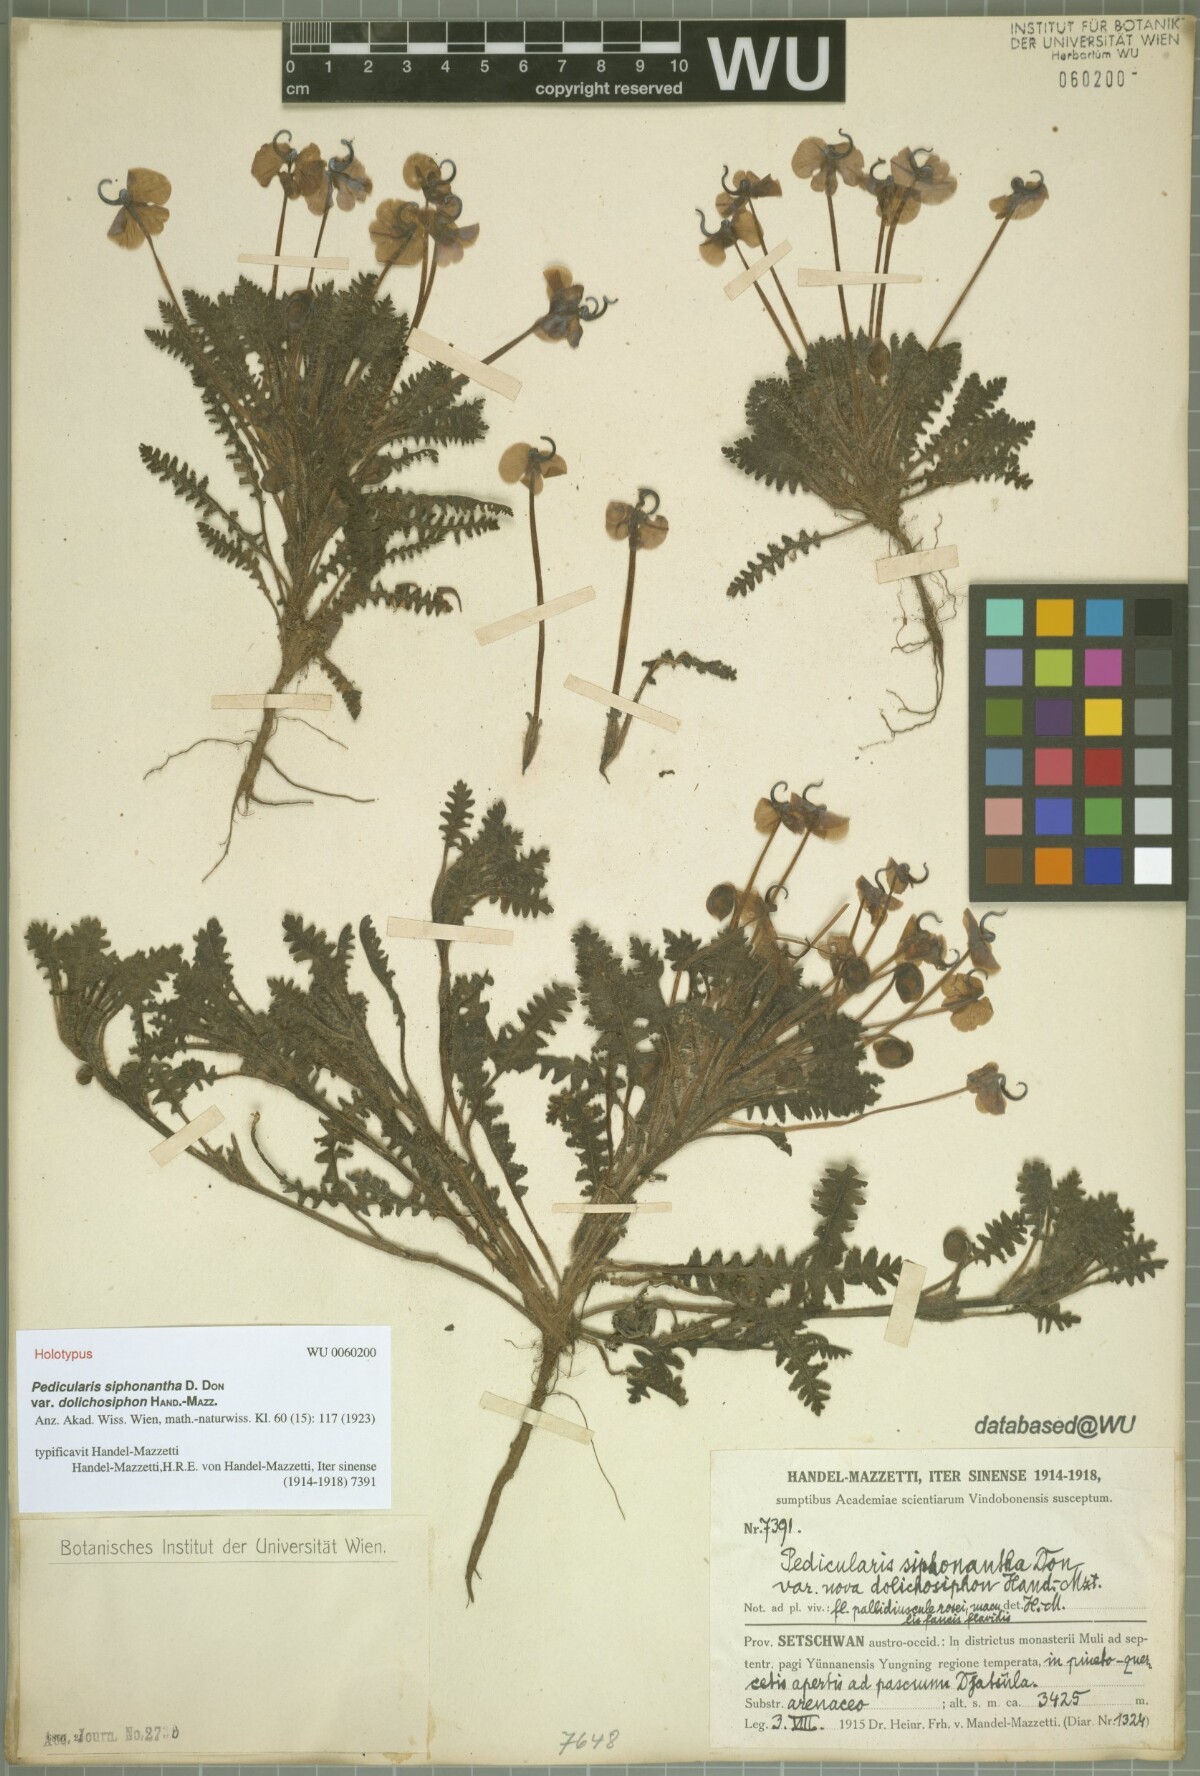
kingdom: Plantae
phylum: Tracheophyta
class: Magnoliopsida
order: Lamiales
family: Orobanchaceae
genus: Pedicularis
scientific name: Pedicularis siphonantha
